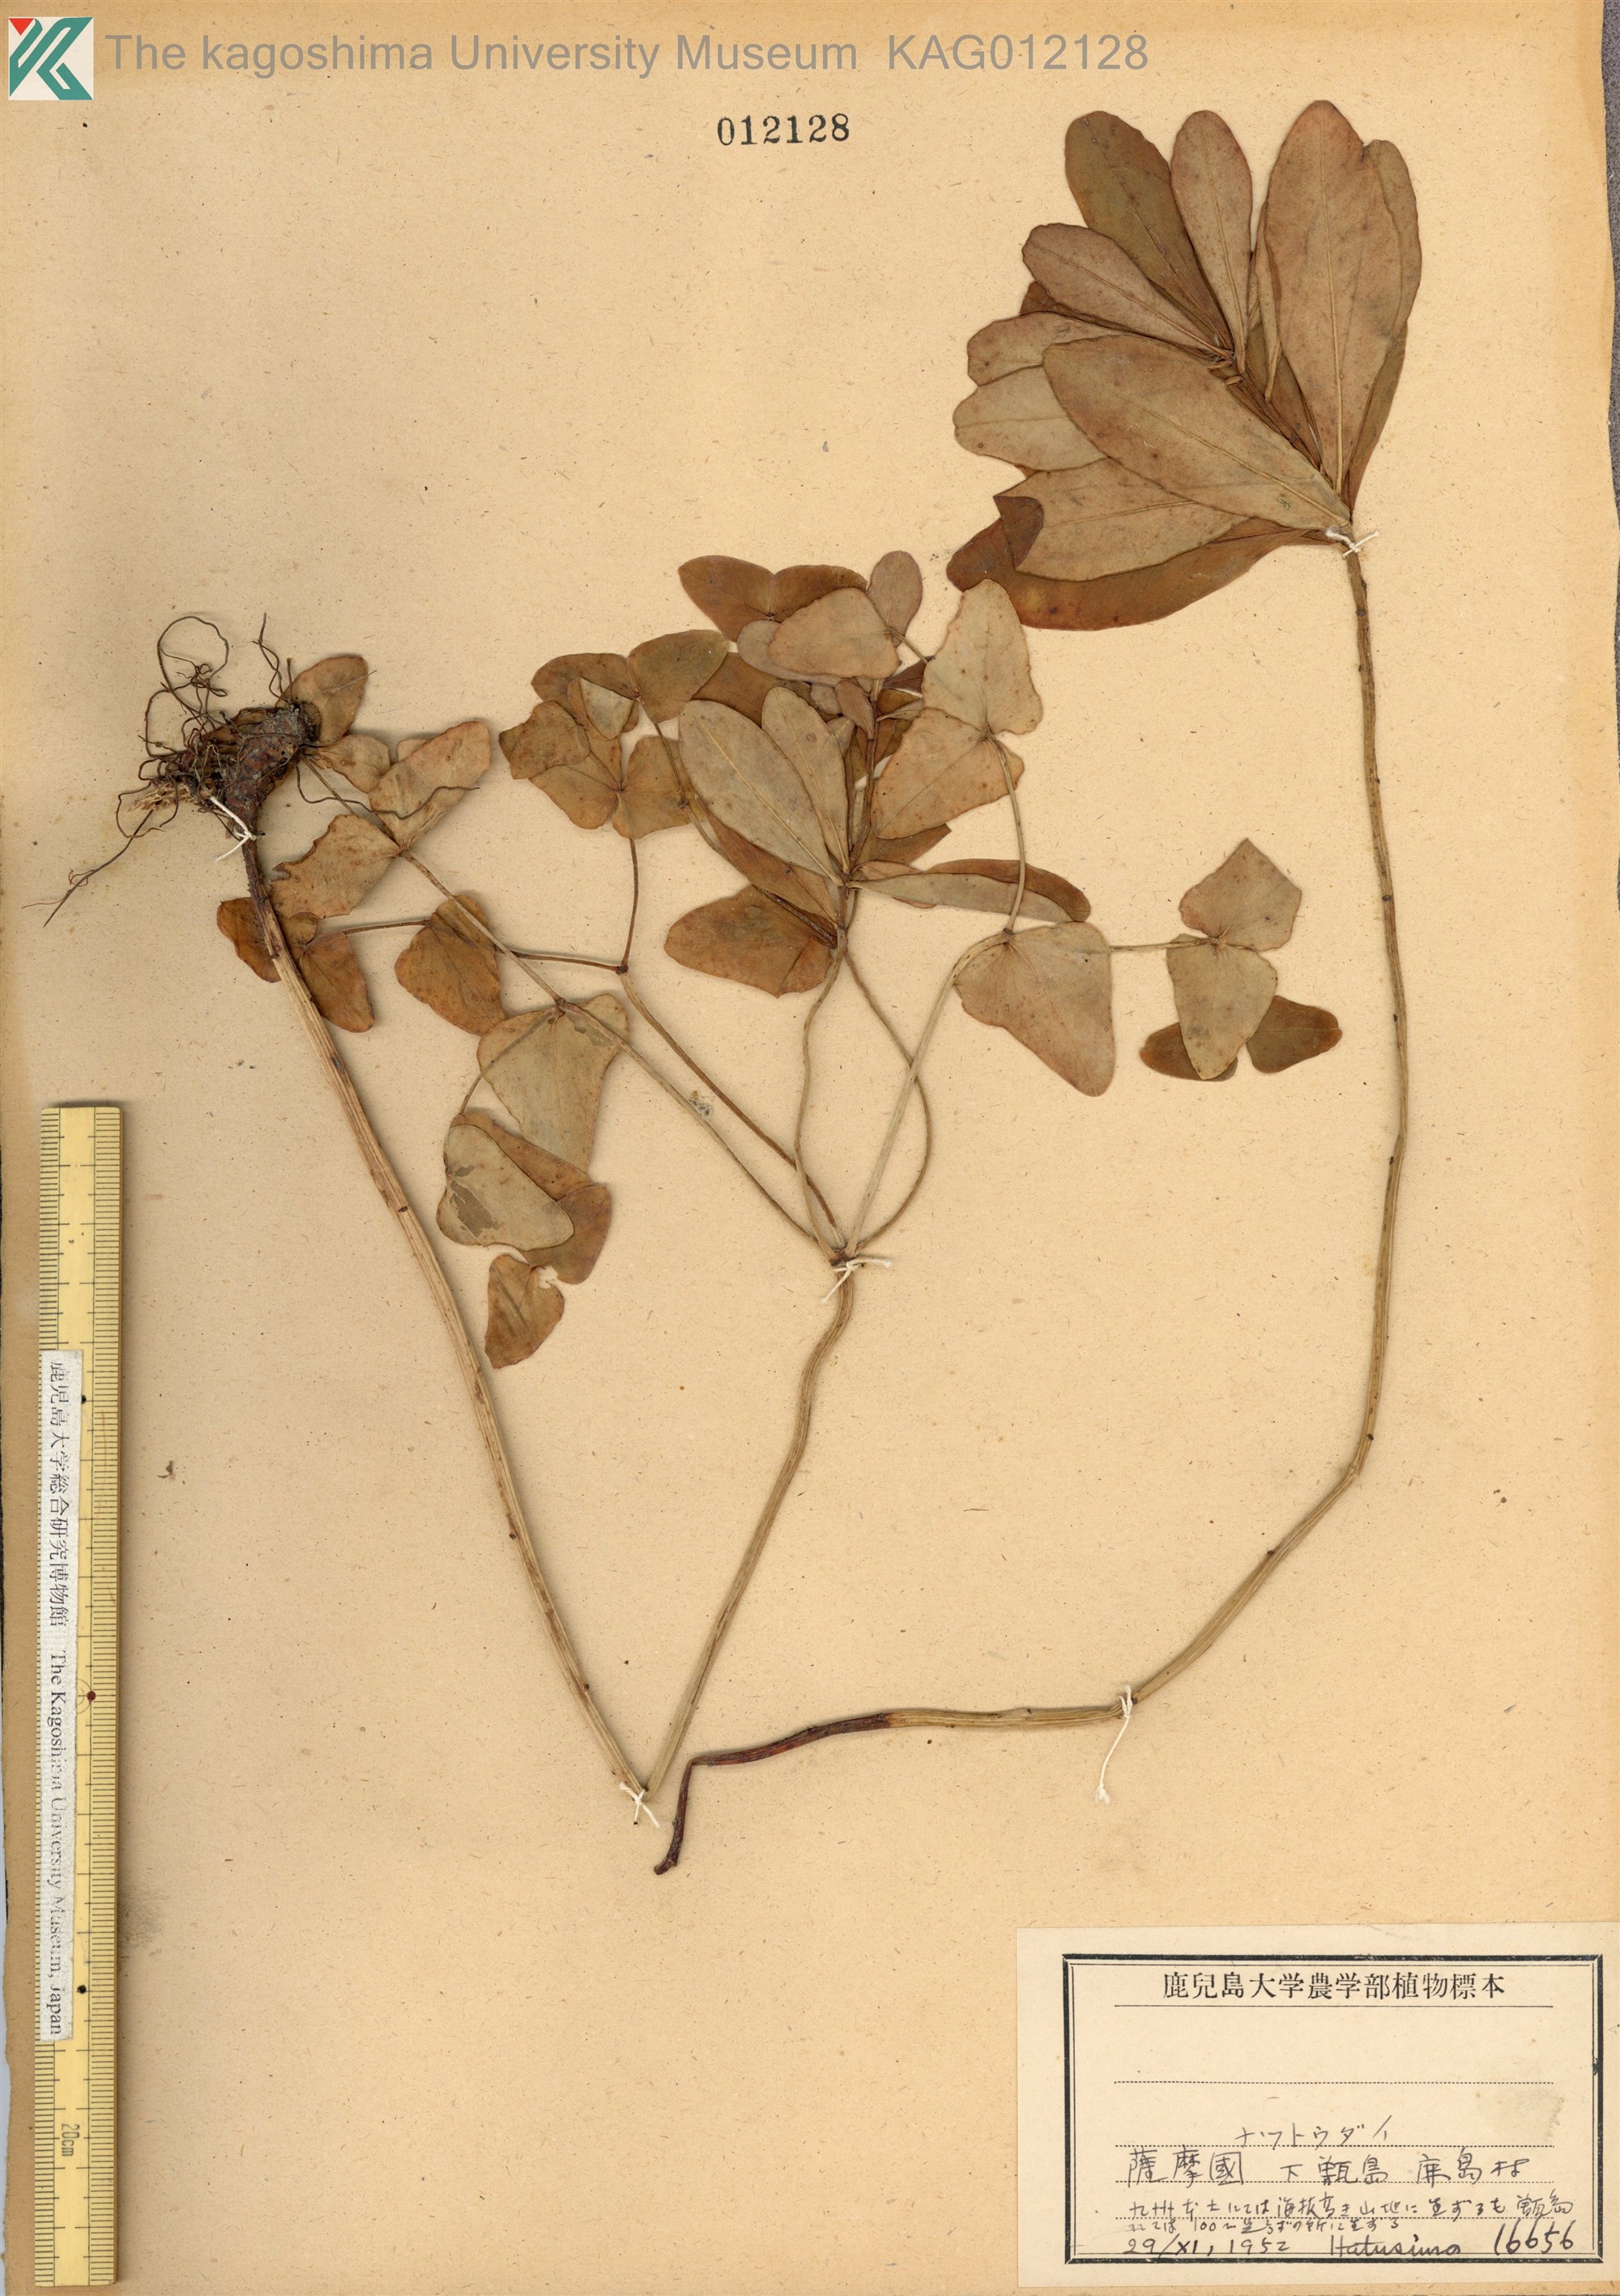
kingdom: Plantae
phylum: Tracheophyta
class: Magnoliopsida
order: Malpighiales
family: Euphorbiaceae
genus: Euphorbia
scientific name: Euphorbia sieboldiana
